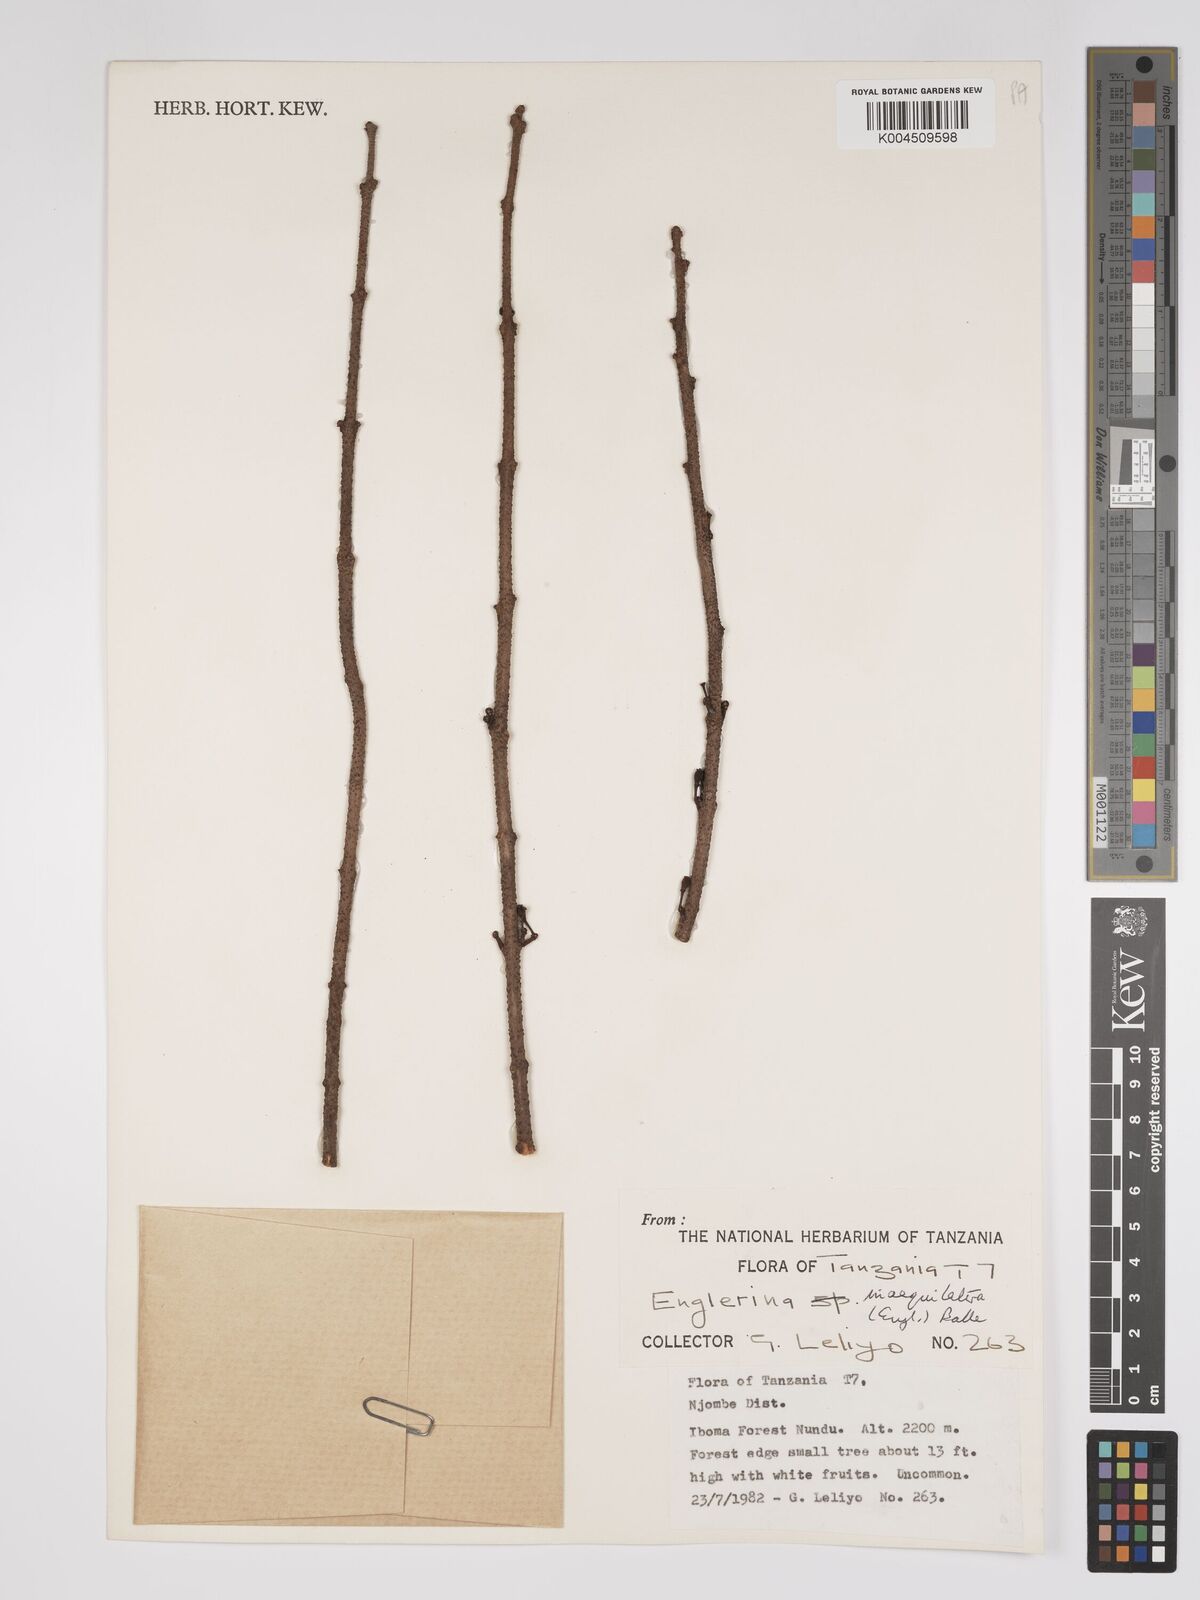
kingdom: Plantae
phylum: Tracheophyta
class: Magnoliopsida
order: Santalales
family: Loranthaceae
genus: Englerina
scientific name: Englerina inaequilatera
